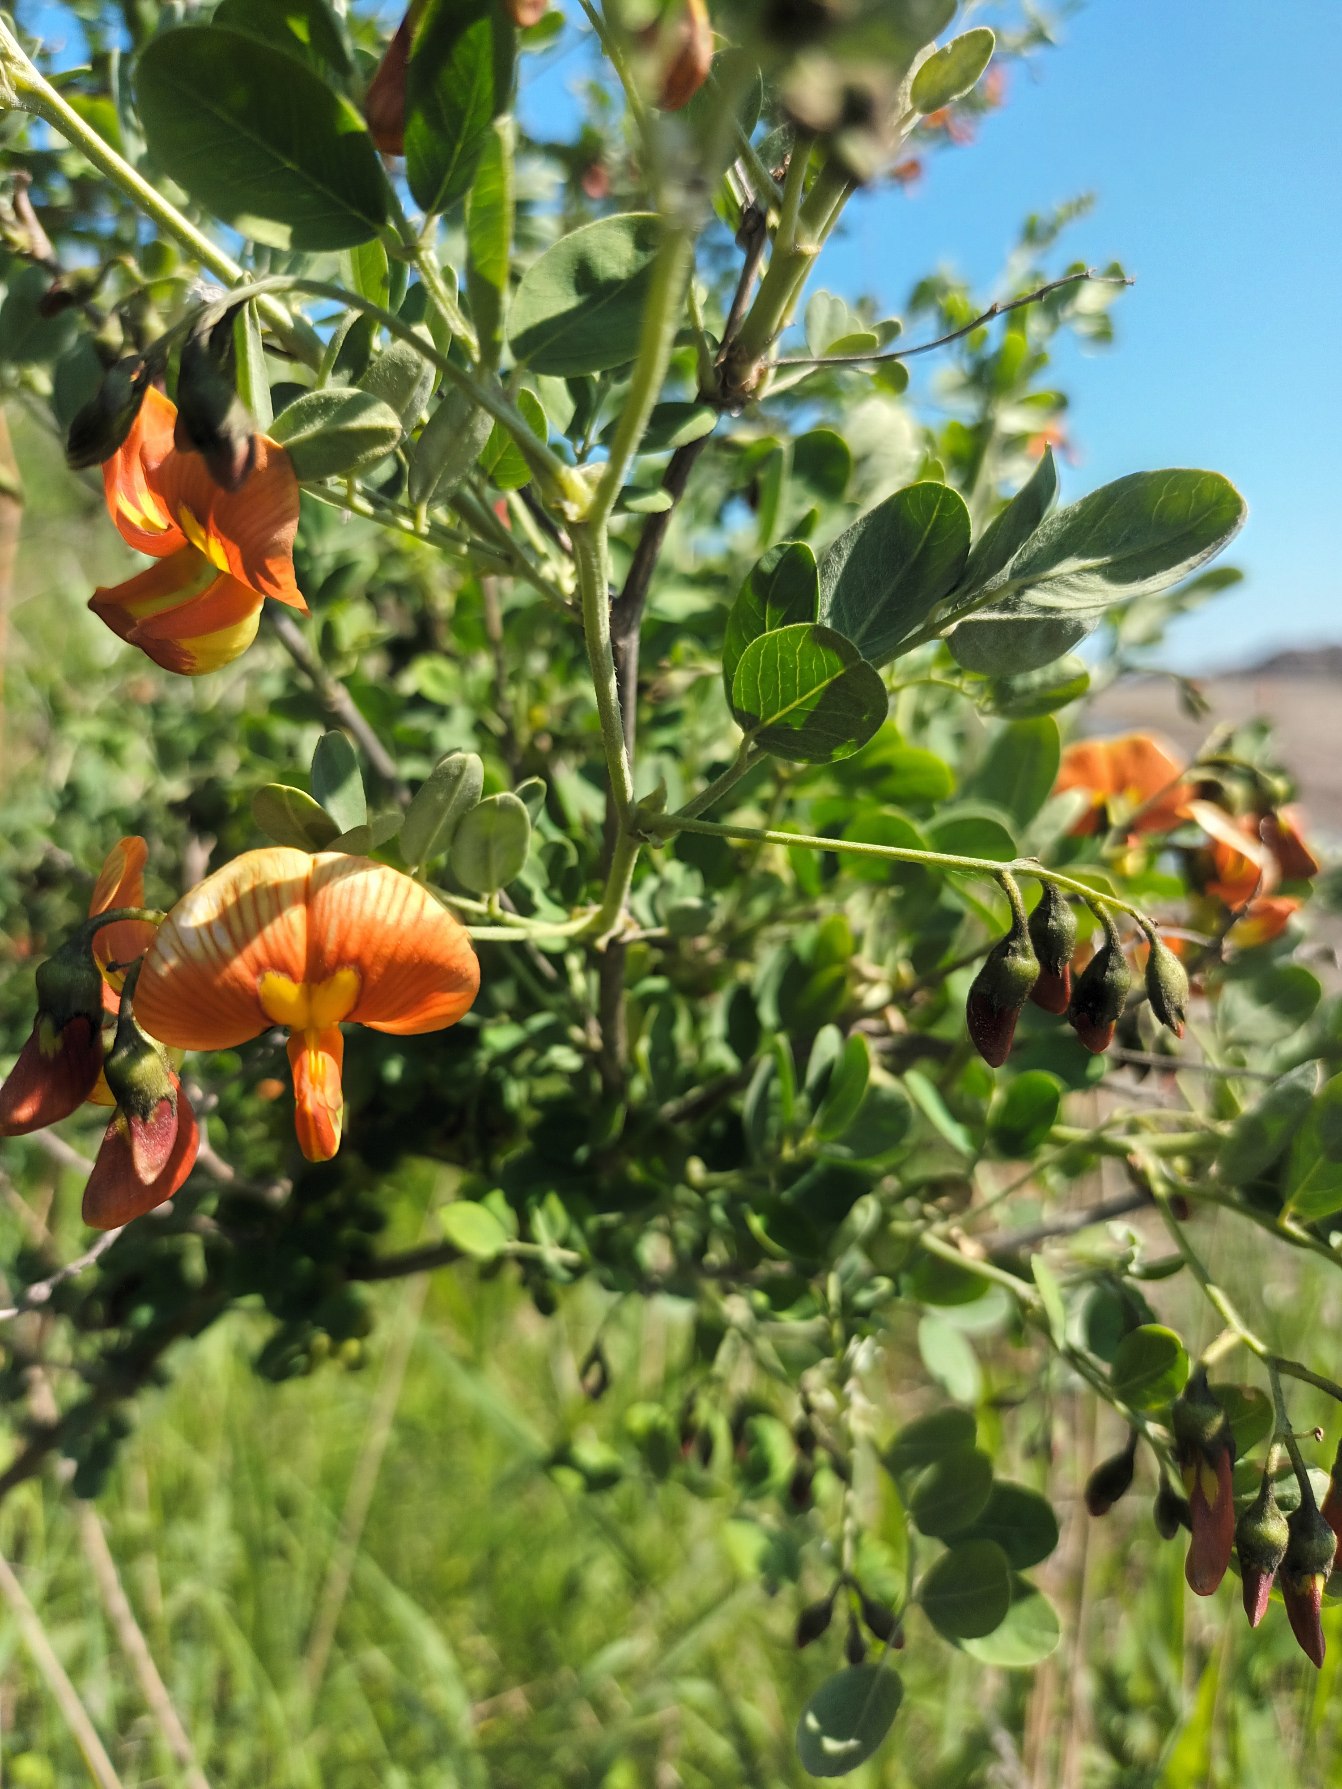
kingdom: Plantae
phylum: Tracheophyta
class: Magnoliopsida
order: Fabales
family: Fabaceae
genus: Colutea
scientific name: Colutea media
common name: Orange blærebælg
